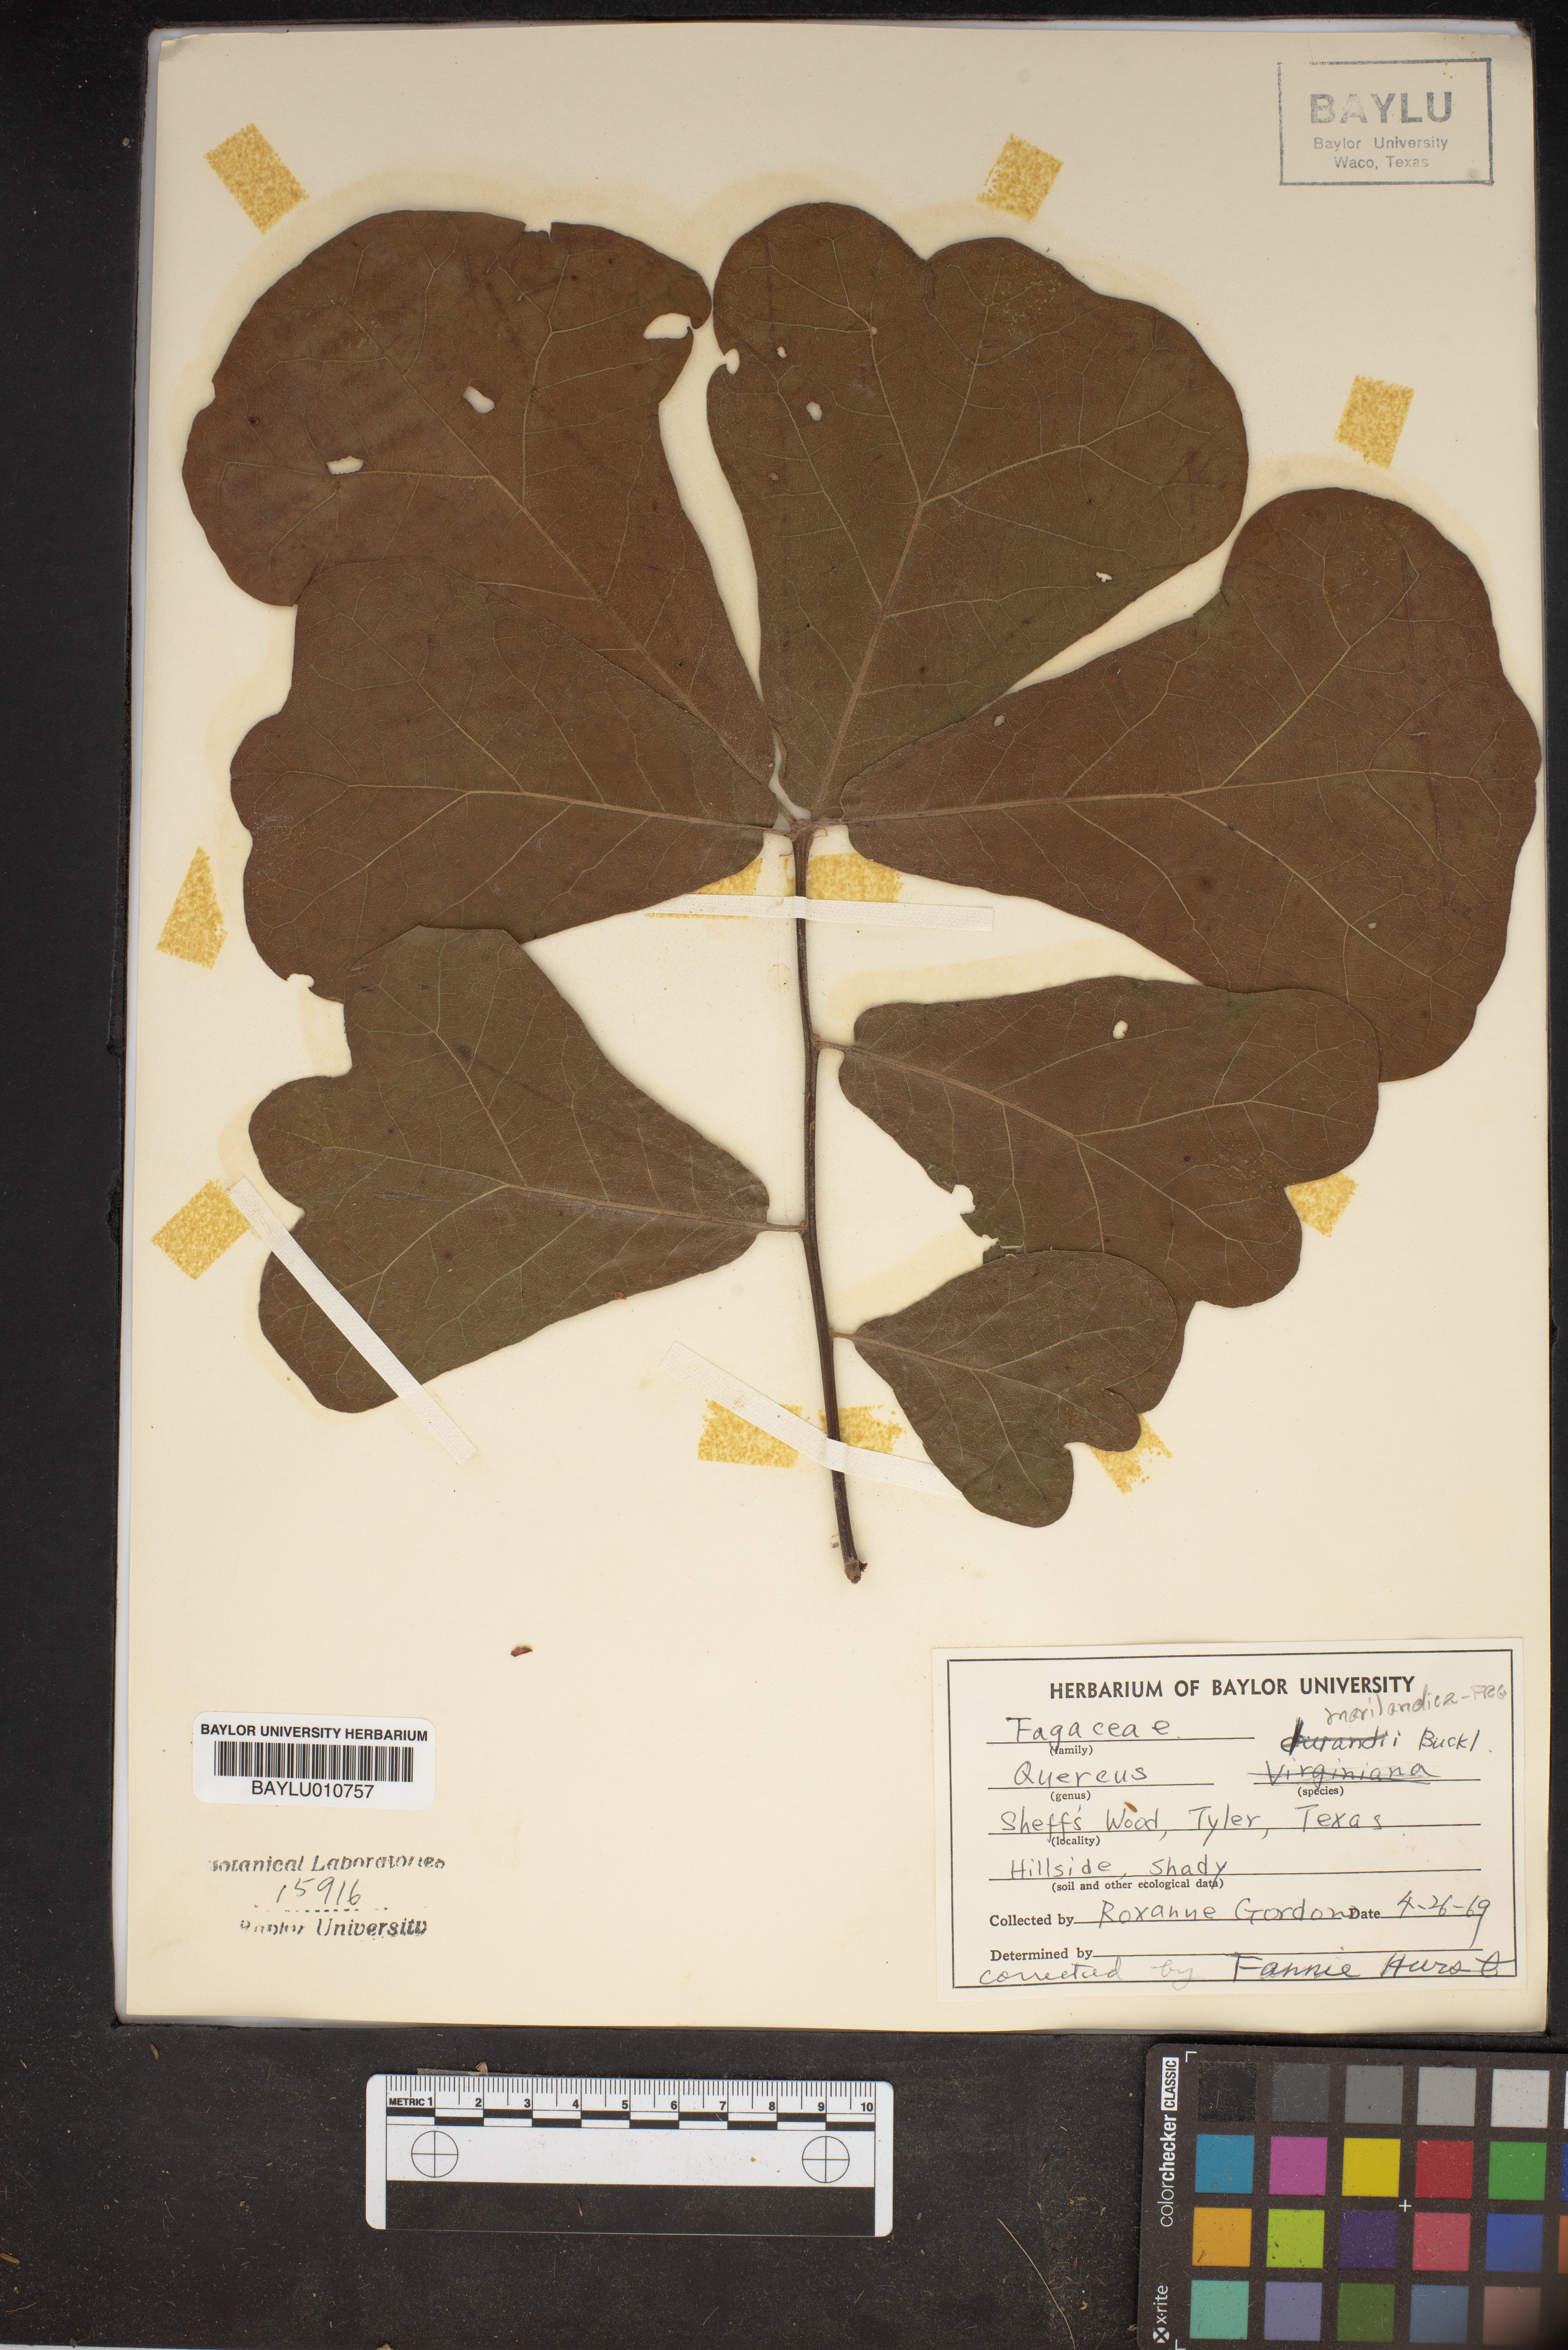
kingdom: Plantae
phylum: Tracheophyta
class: Magnoliopsida
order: Fagales
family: Fagaceae
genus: Quercus
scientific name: Quercus marilandica
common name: Blackjack oak
